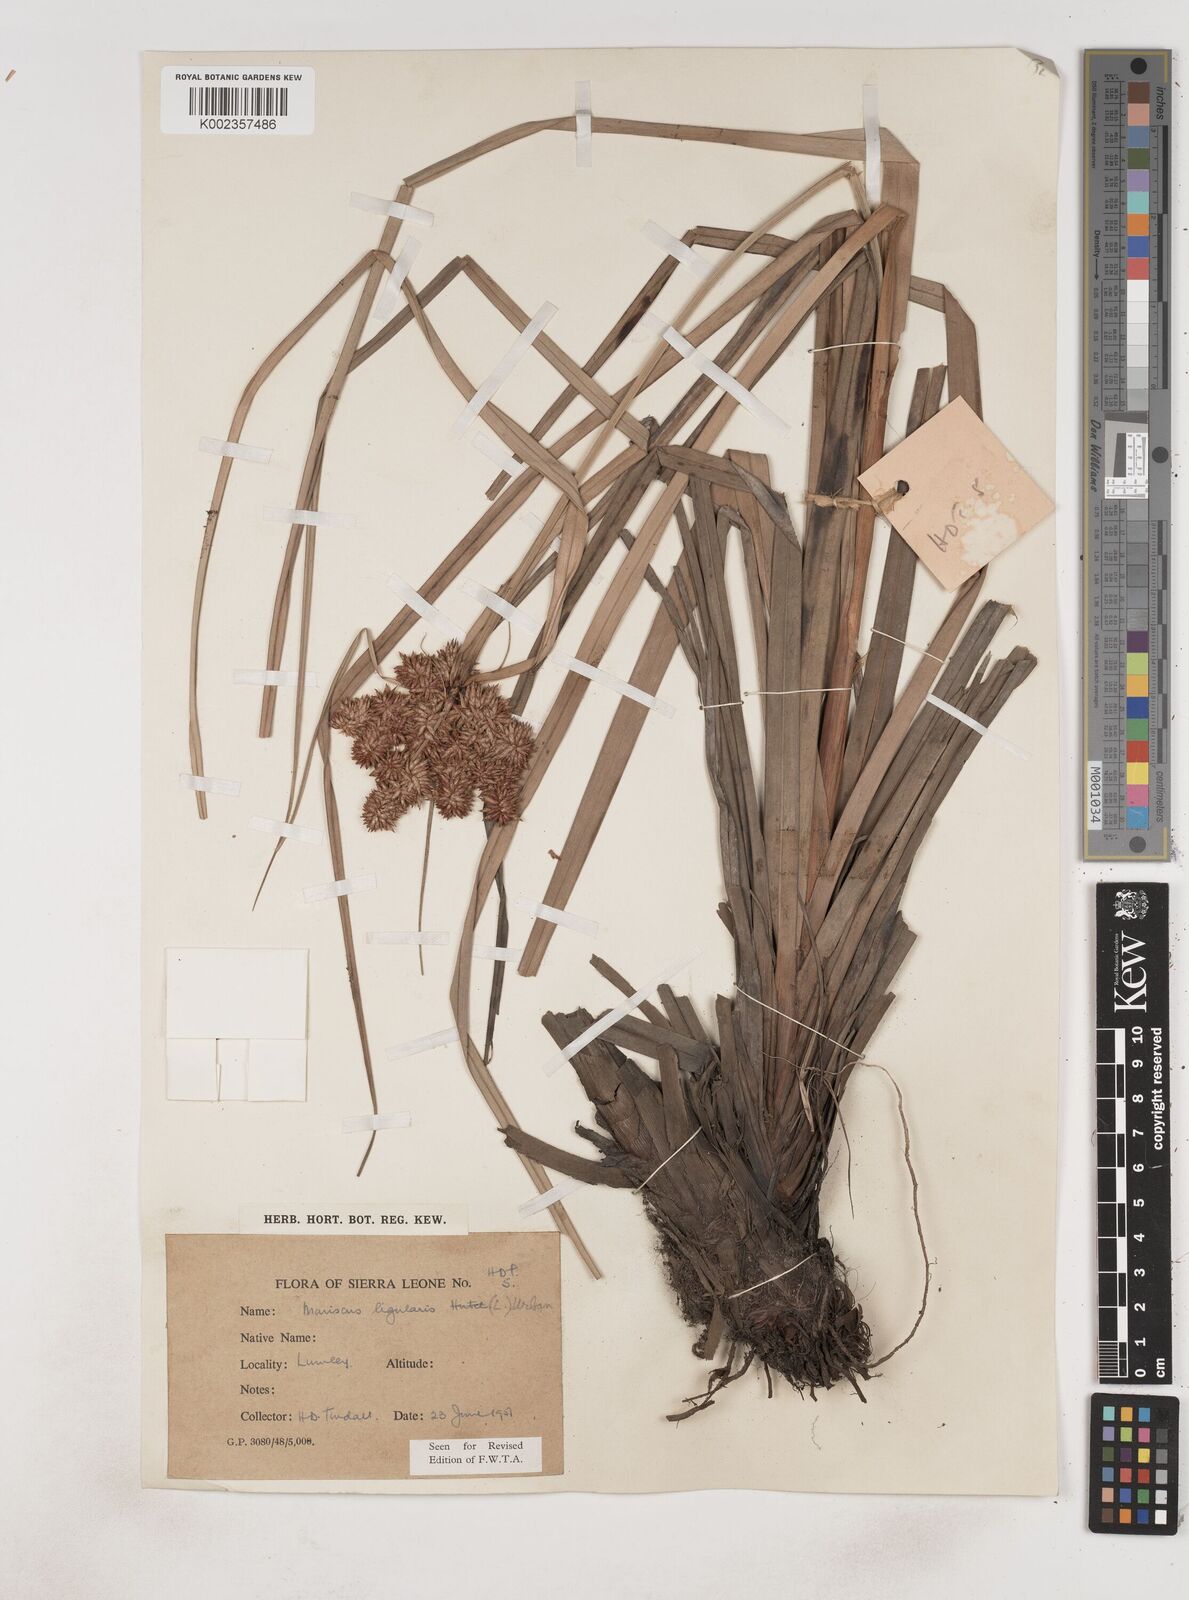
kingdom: Plantae
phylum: Tracheophyta
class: Liliopsida
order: Poales
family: Cyperaceae
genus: Cyperus
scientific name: Cyperus ligularis
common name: Swamp flat sedge
